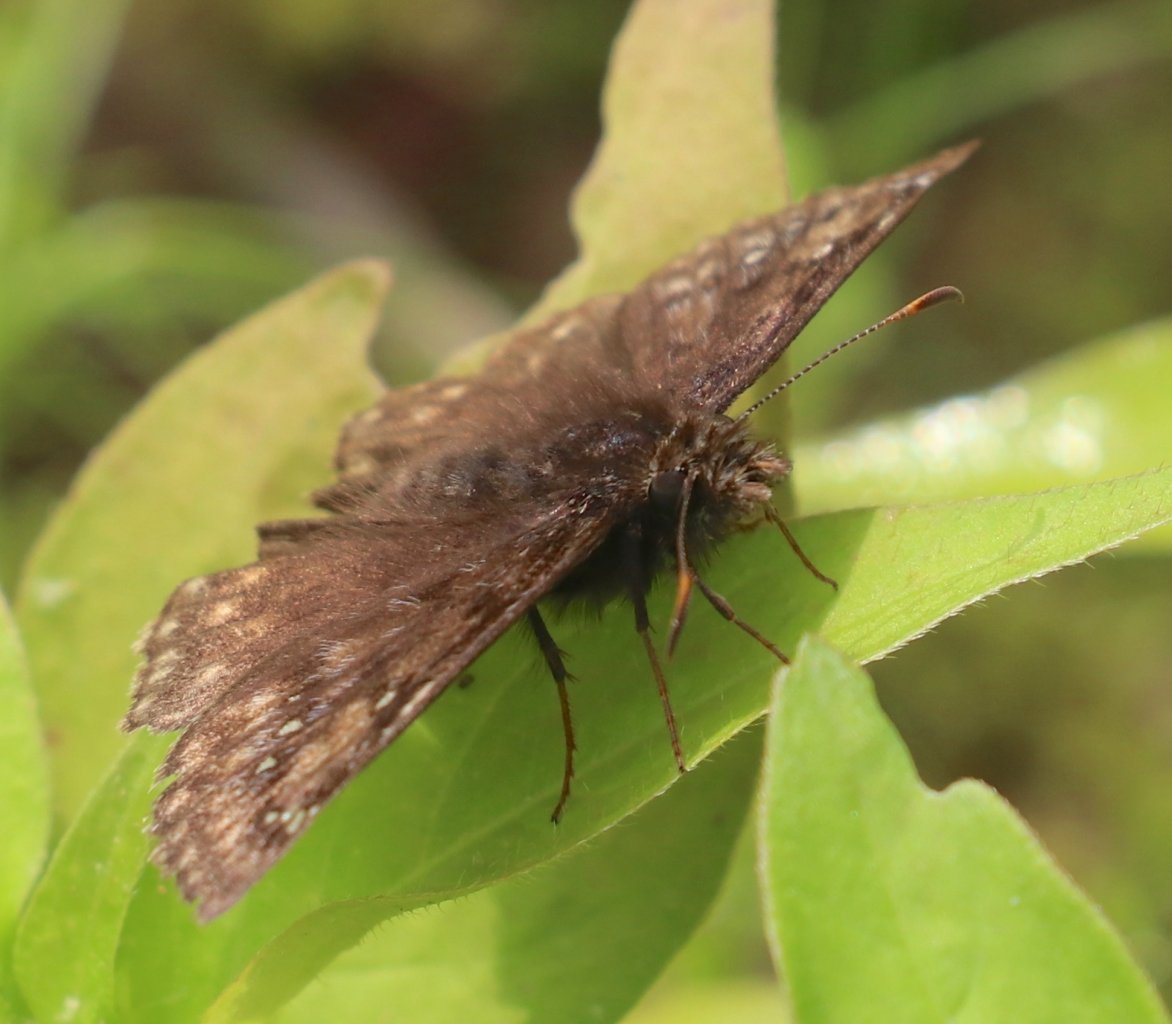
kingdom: Animalia
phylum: Arthropoda
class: Insecta
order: Lepidoptera
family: Hesperiidae
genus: Gesta
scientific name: Gesta
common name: Horace's Duskywing
